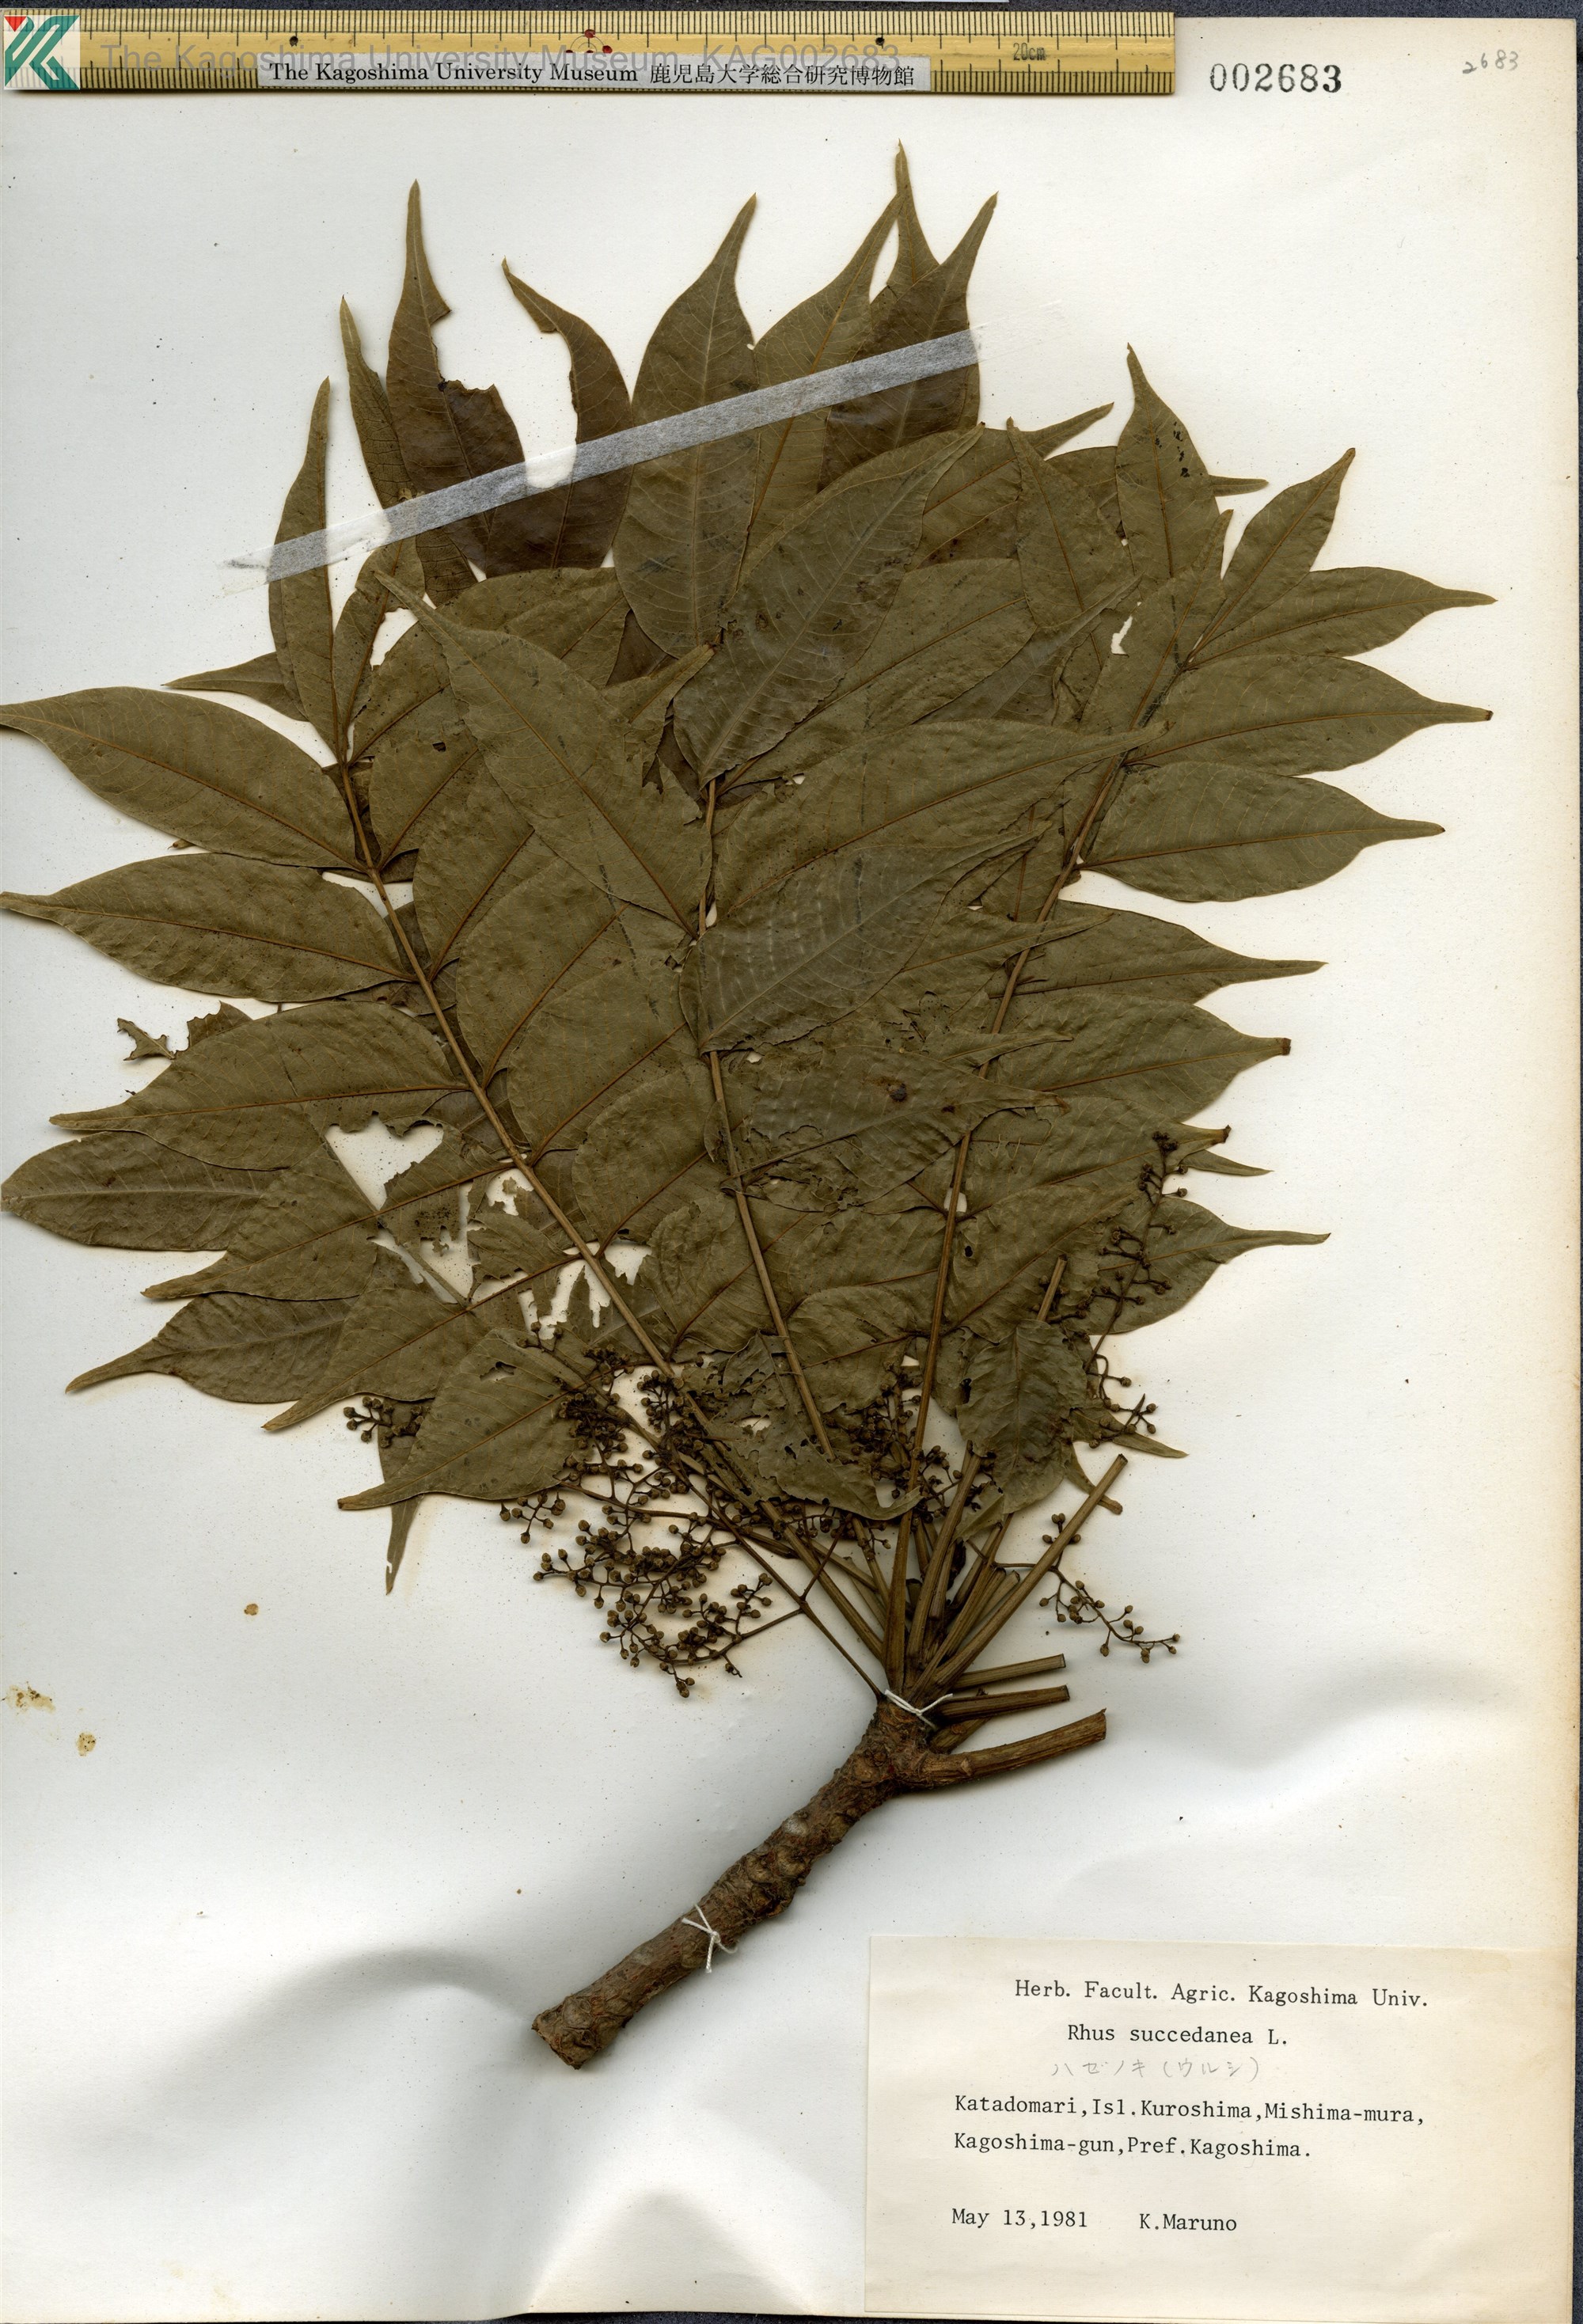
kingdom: Plantae
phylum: Tracheophyta
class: Magnoliopsida
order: Sapindales
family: Anacardiaceae
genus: Toxicodendron
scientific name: Toxicodendron succedaneum
